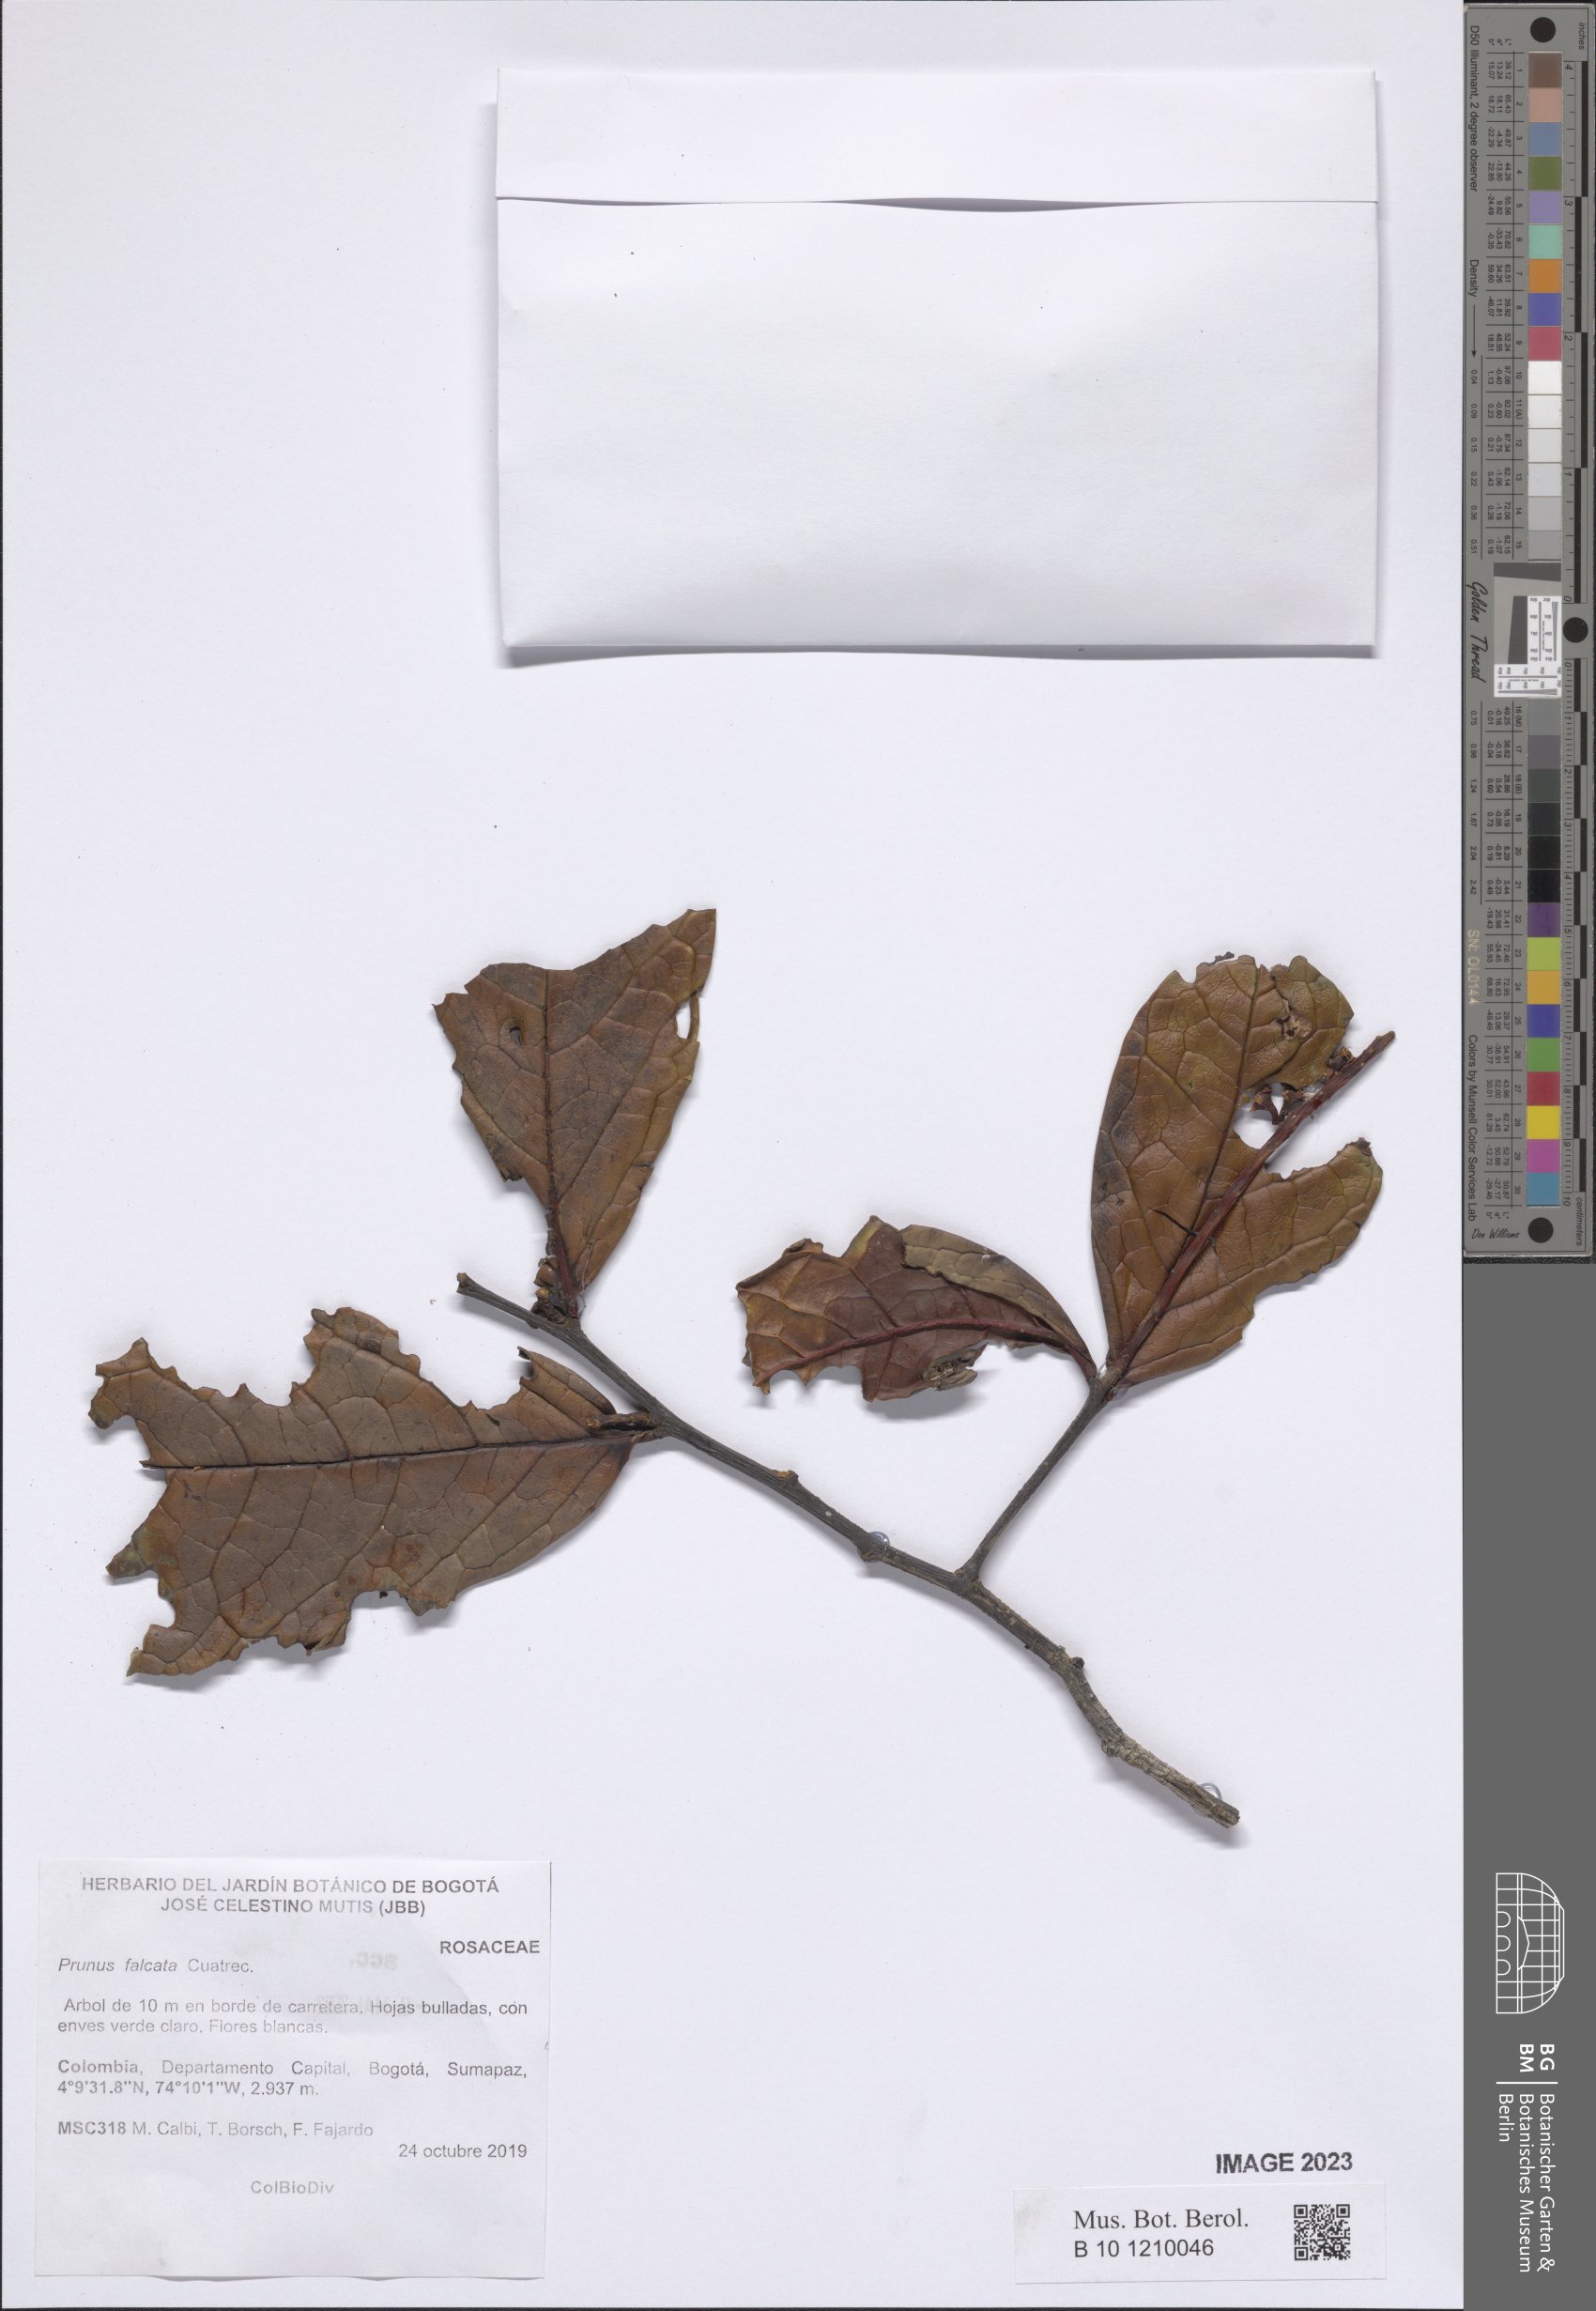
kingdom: Plantae
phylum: Tracheophyta
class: Magnoliopsida
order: Rosales
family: Rosaceae
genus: Prunus
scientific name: Prunus falcata
